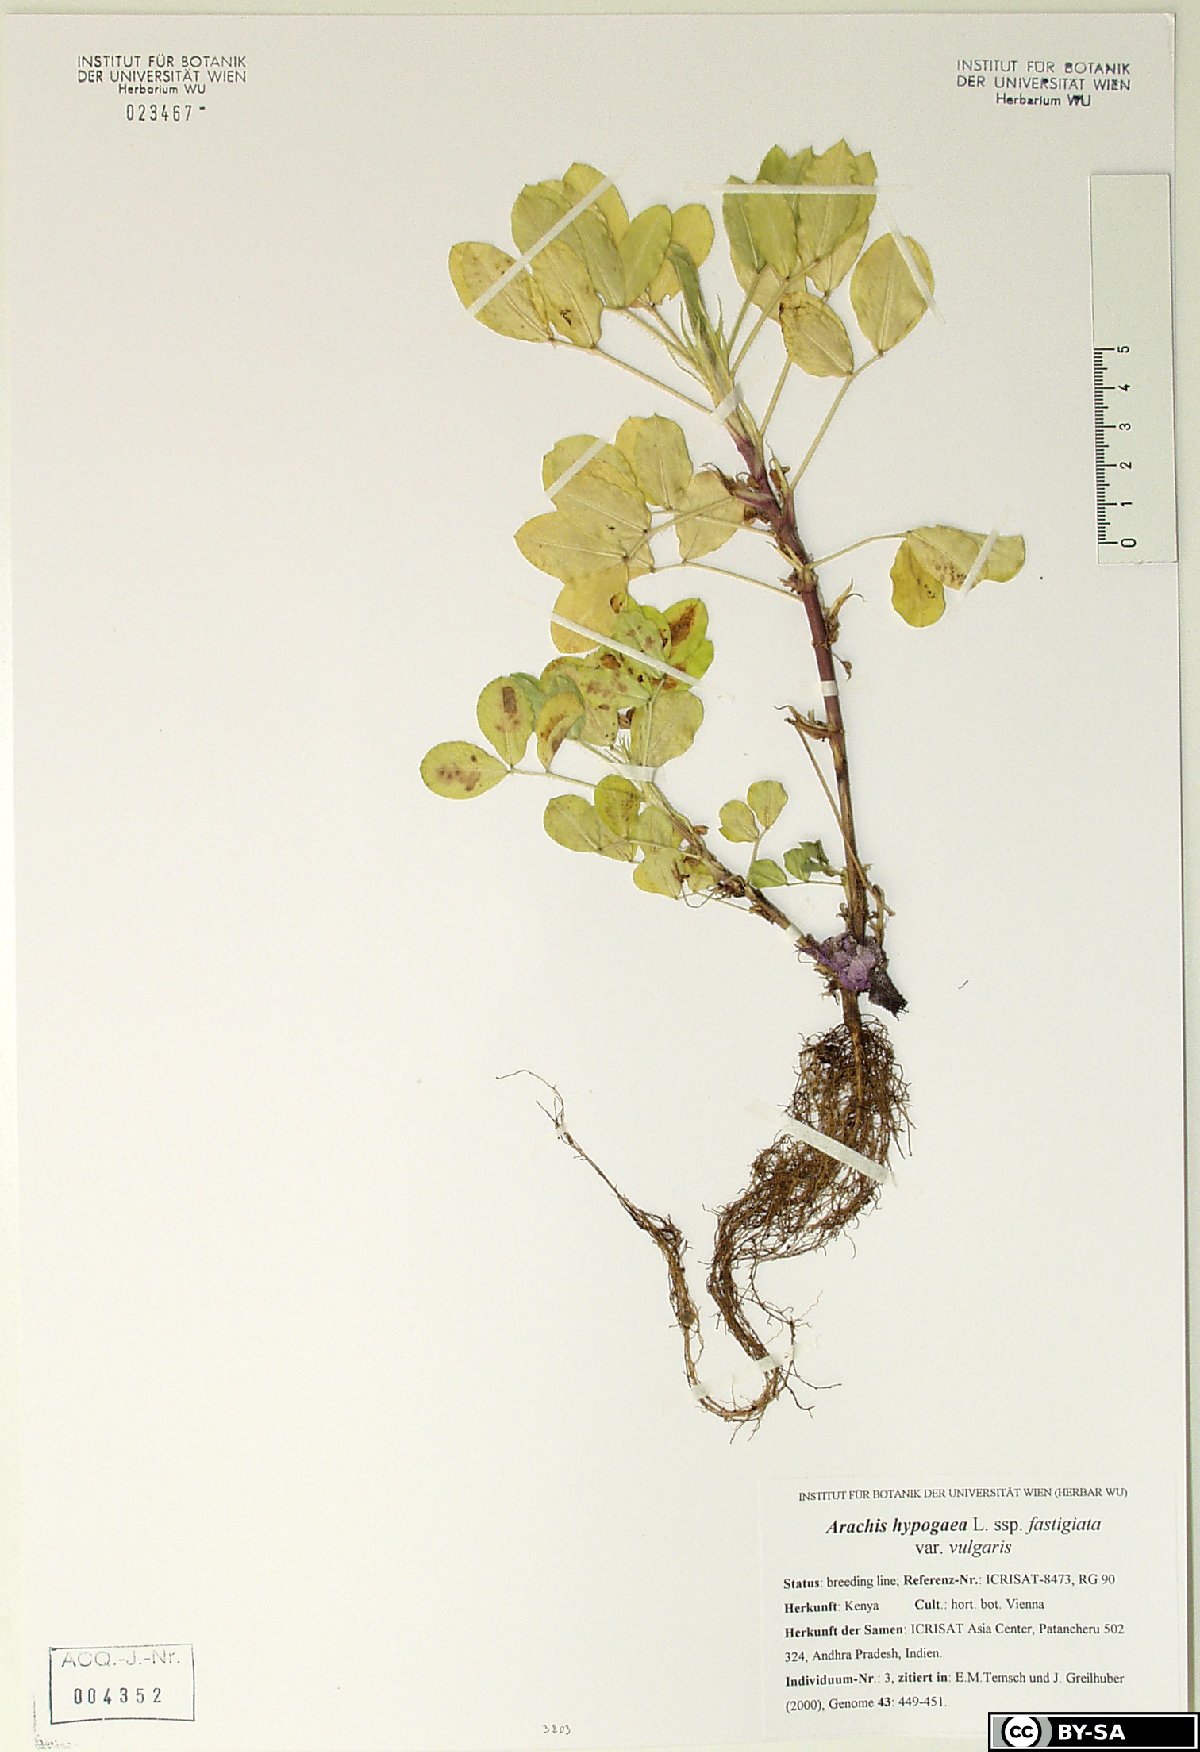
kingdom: Plantae
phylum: Tracheophyta
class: Magnoliopsida
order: Fabales
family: Fabaceae
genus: Arachis
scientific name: Arachis hypogaea
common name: Peanut
